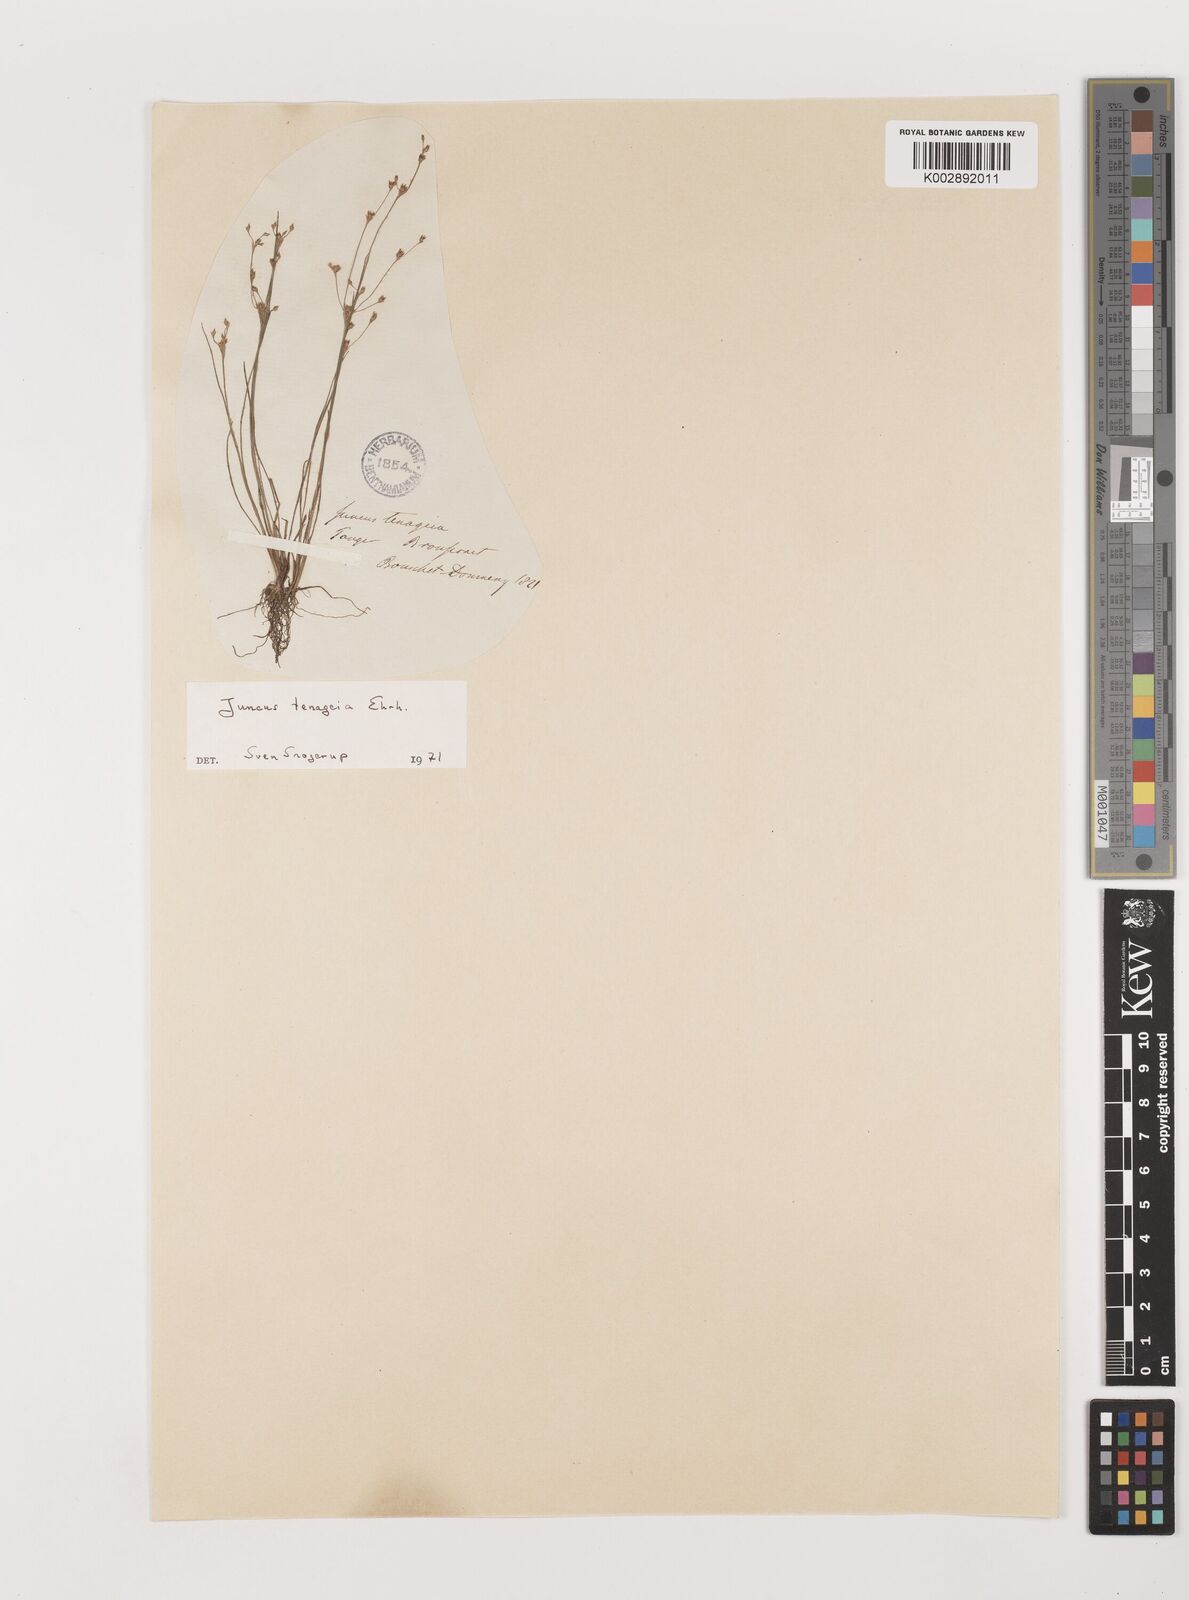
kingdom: Plantae
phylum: Tracheophyta
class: Liliopsida
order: Poales
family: Juncaceae
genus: Juncus
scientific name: Juncus tenageia
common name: Sand rush
